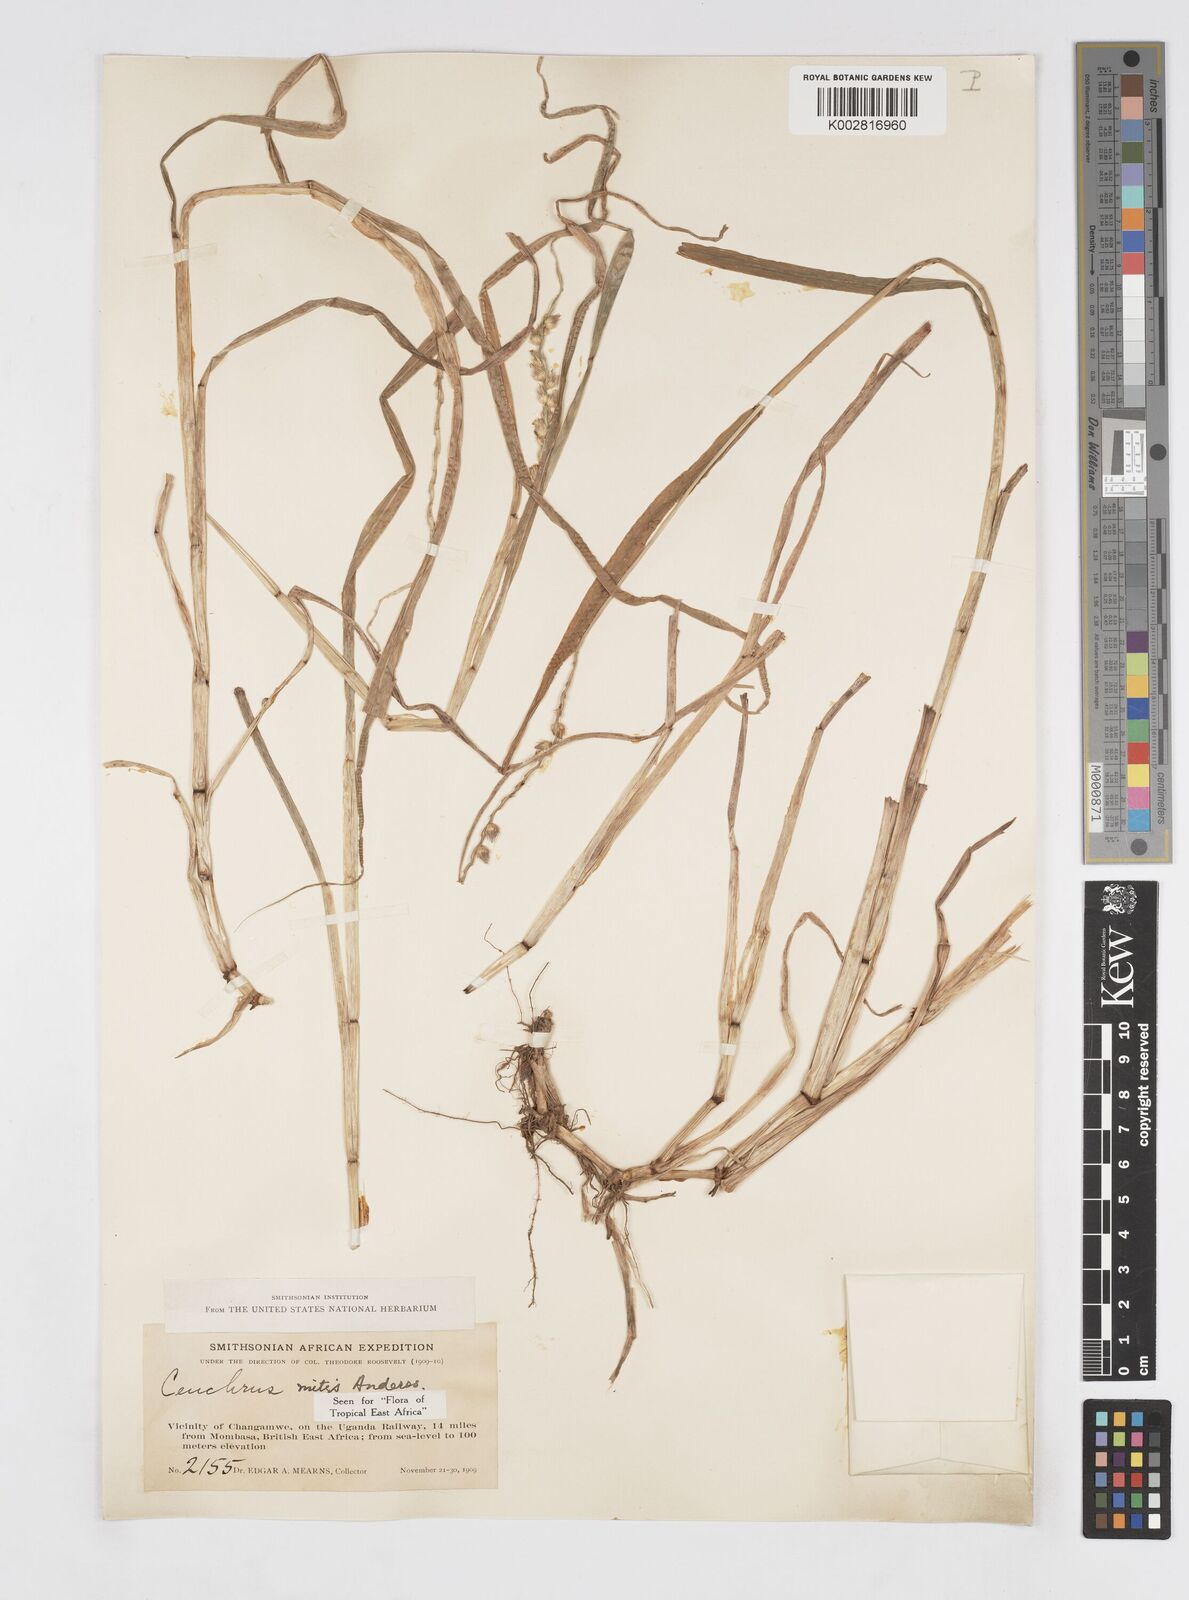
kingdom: Plantae
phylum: Tracheophyta
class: Liliopsida
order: Poales
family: Poaceae
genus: Cenchrus
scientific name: Cenchrus mitis
